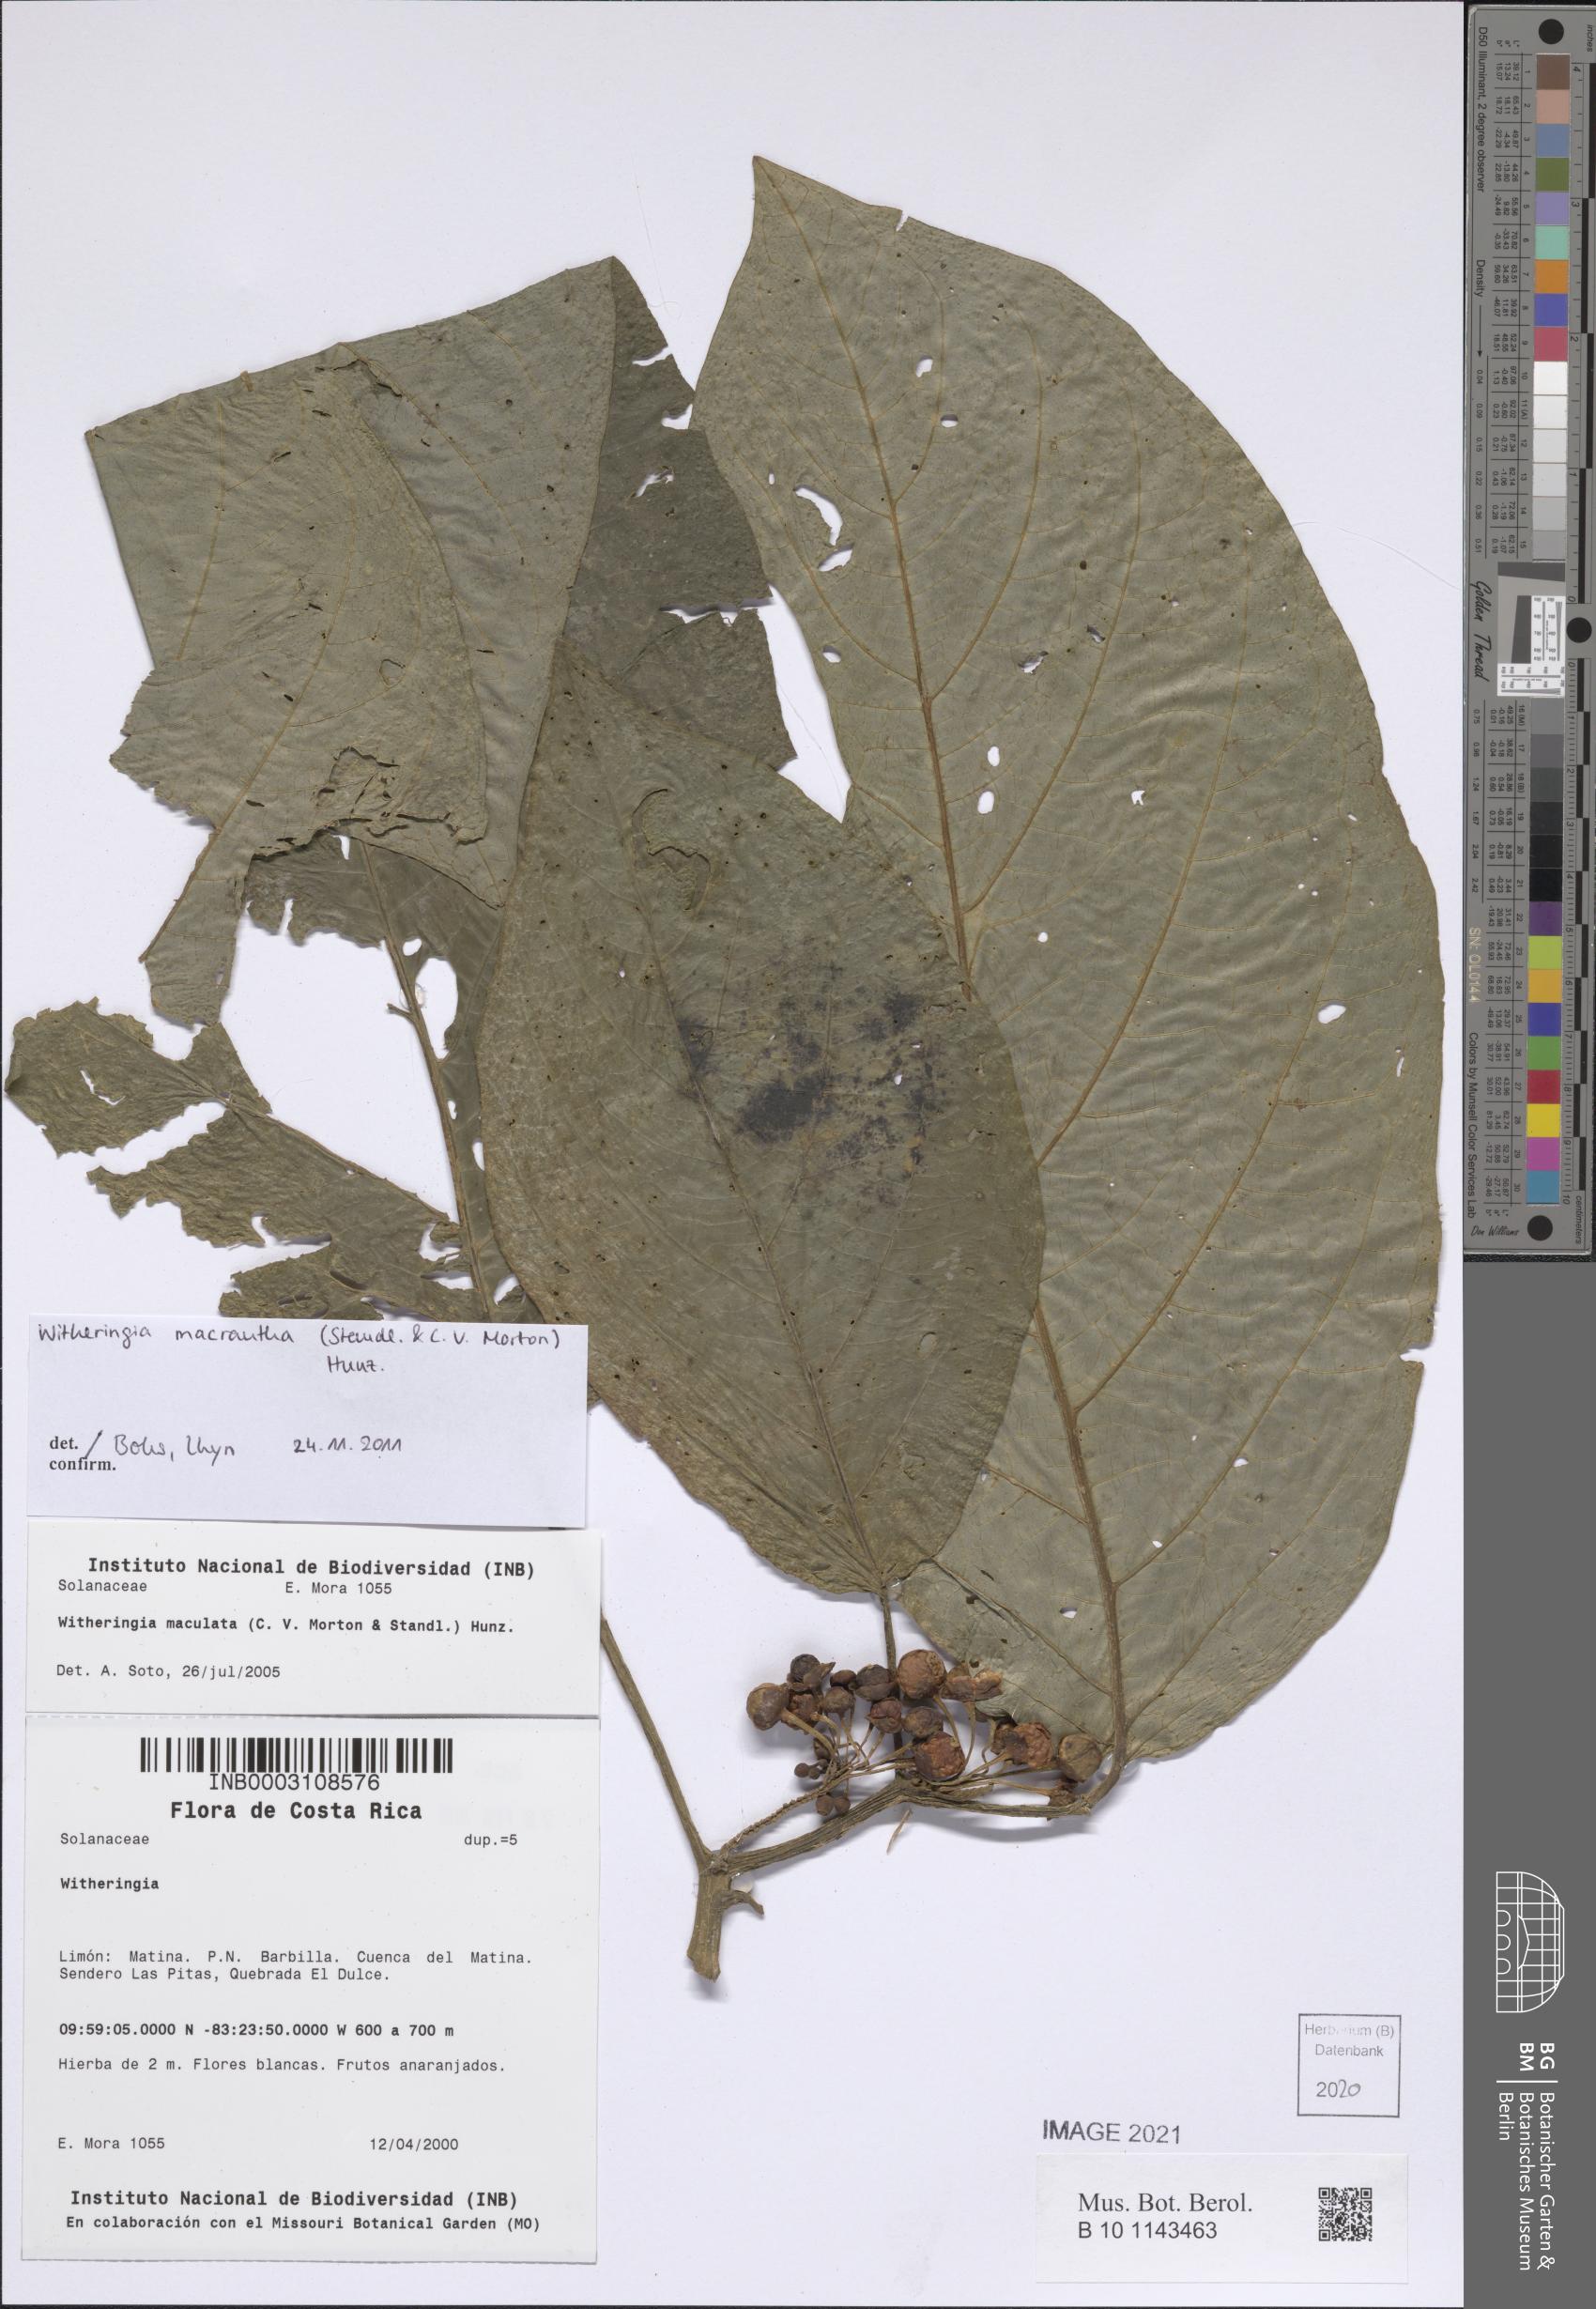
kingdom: Plantae
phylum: Tracheophyta
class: Magnoliopsida
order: Solanales
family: Solanaceae
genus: Witheringia
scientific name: Witheringia maculata
